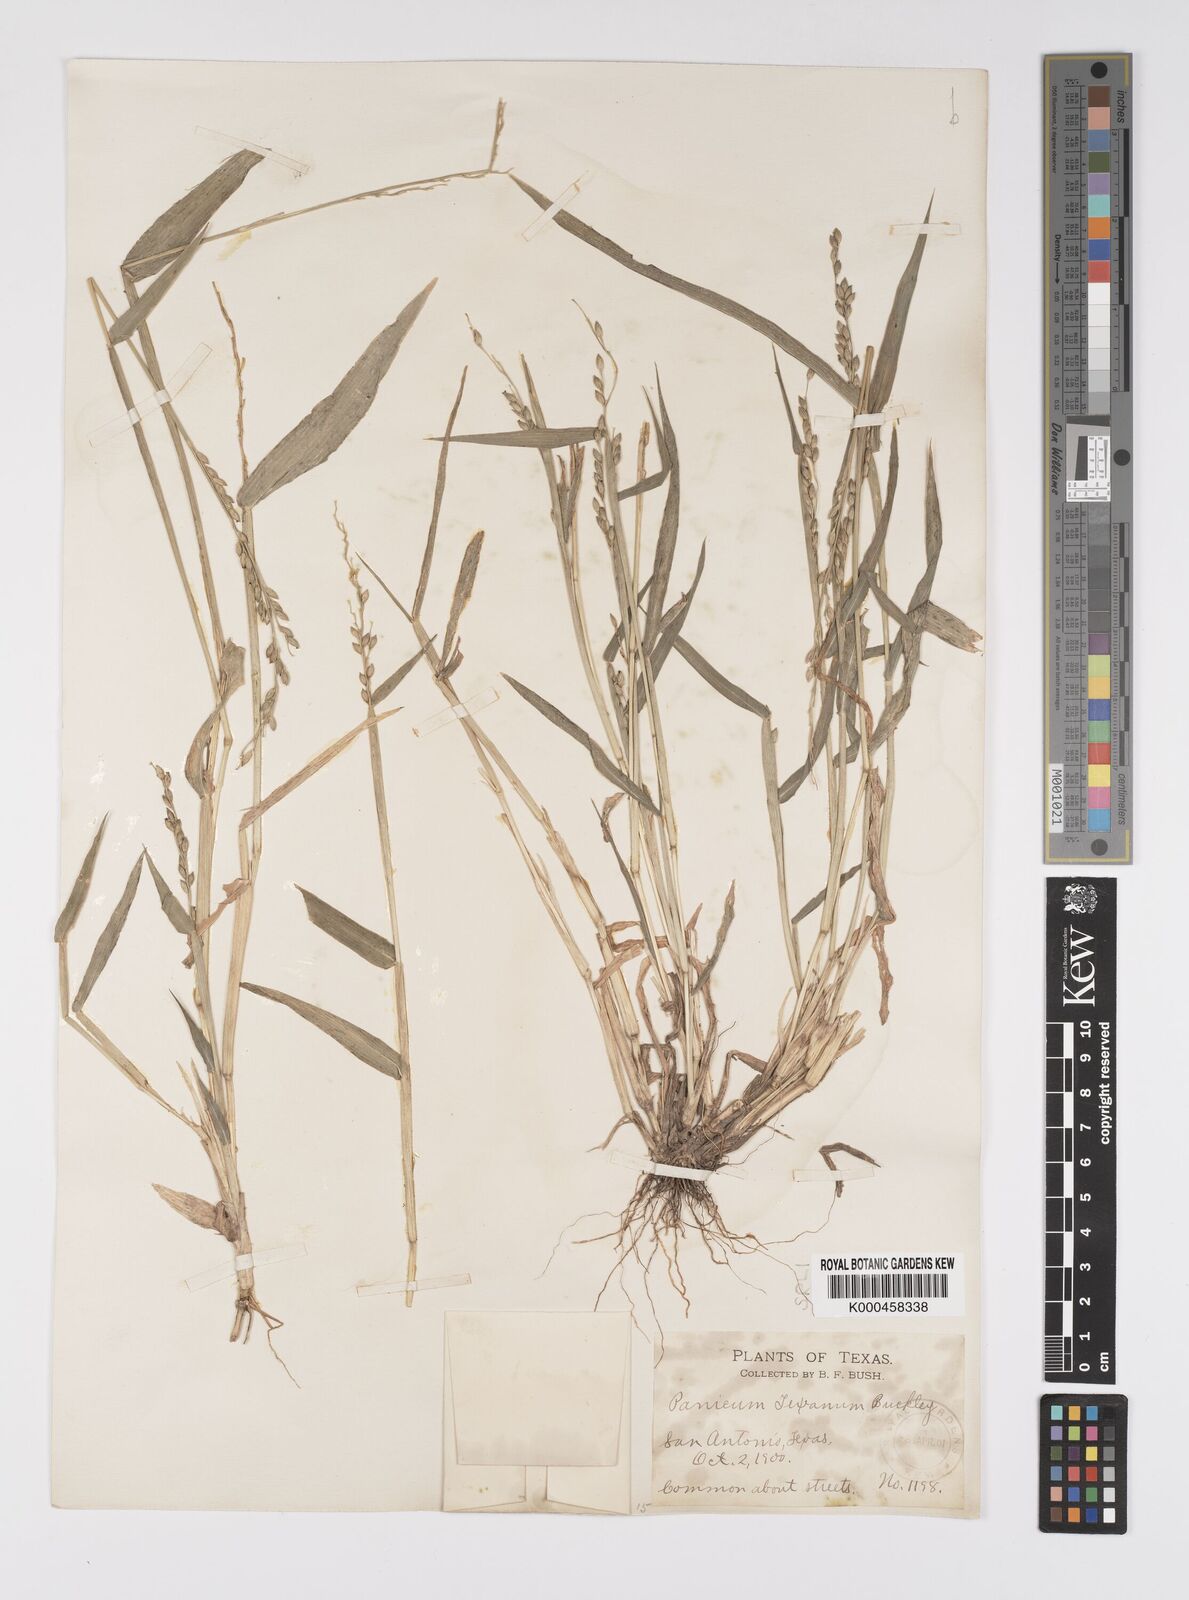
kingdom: Plantae
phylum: Tracheophyta
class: Liliopsida
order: Poales
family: Poaceae
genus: Urochloa
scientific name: Urochloa texana
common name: Texas millet
